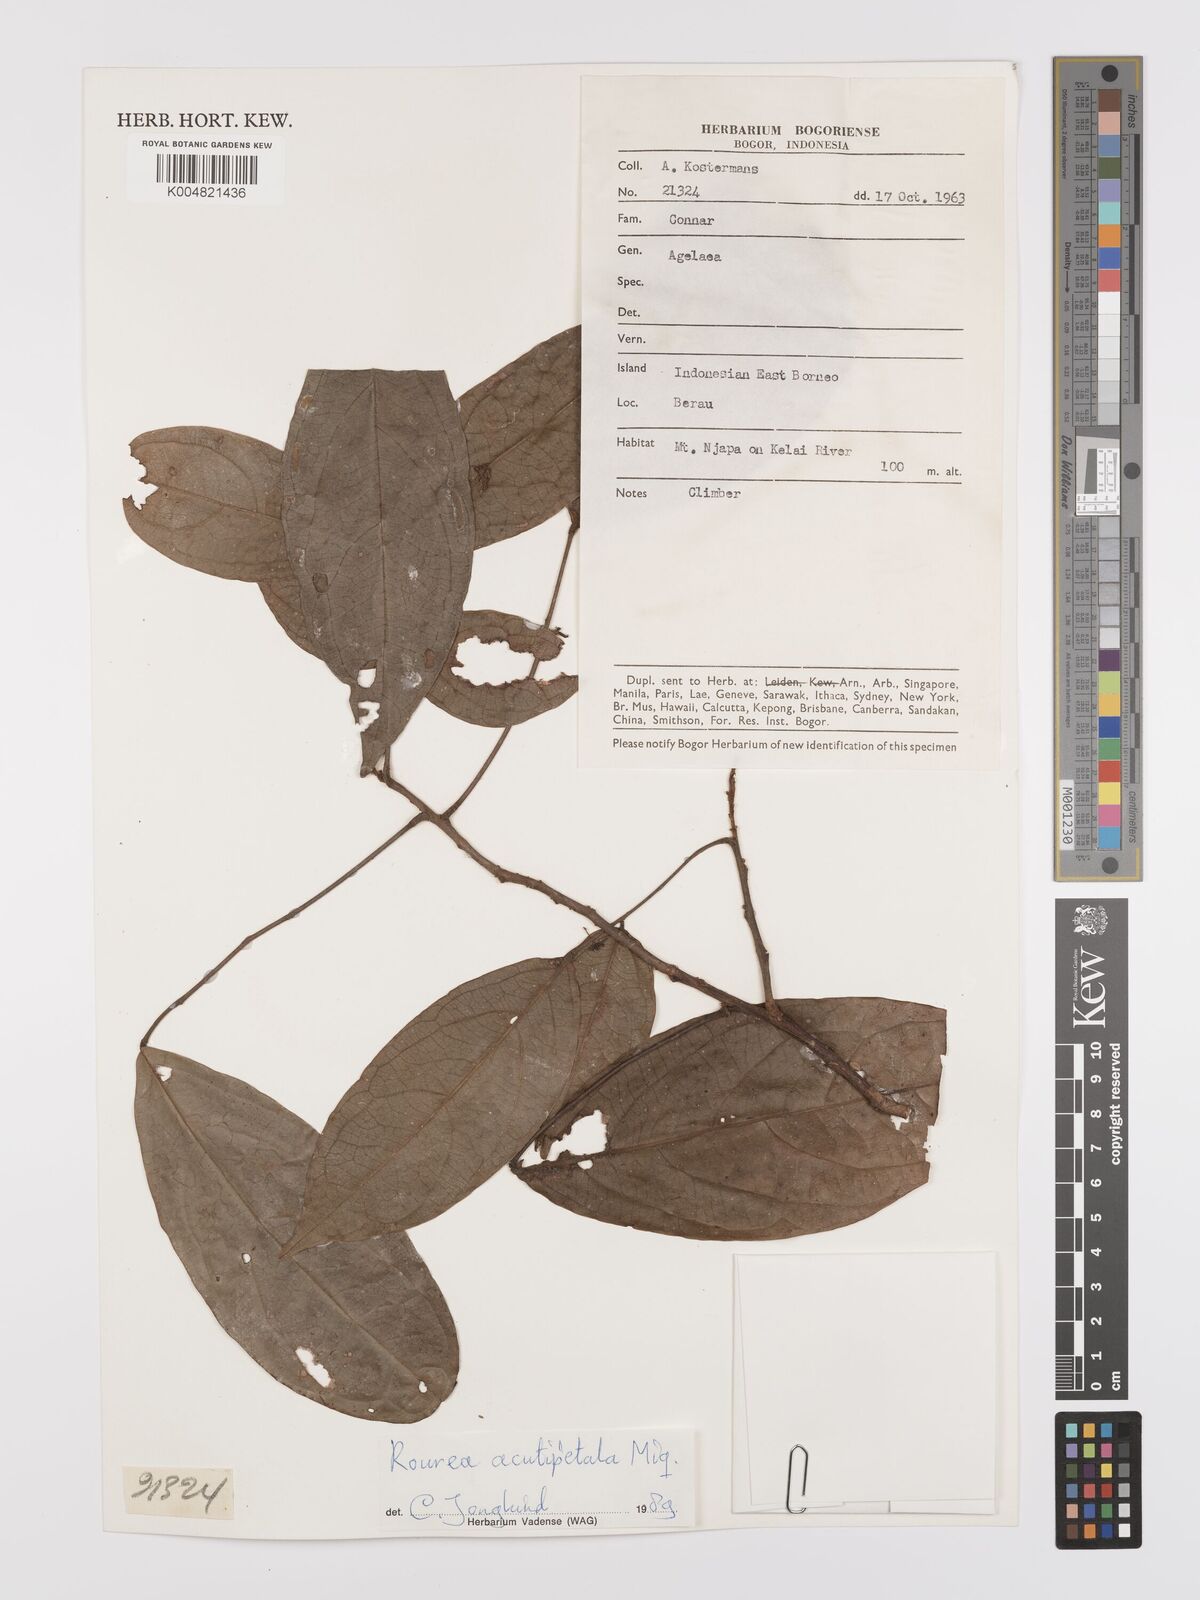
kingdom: Plantae
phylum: Tracheophyta
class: Magnoliopsida
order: Oxalidales
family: Connaraceae
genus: Rourea
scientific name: Rourea acutipetala
